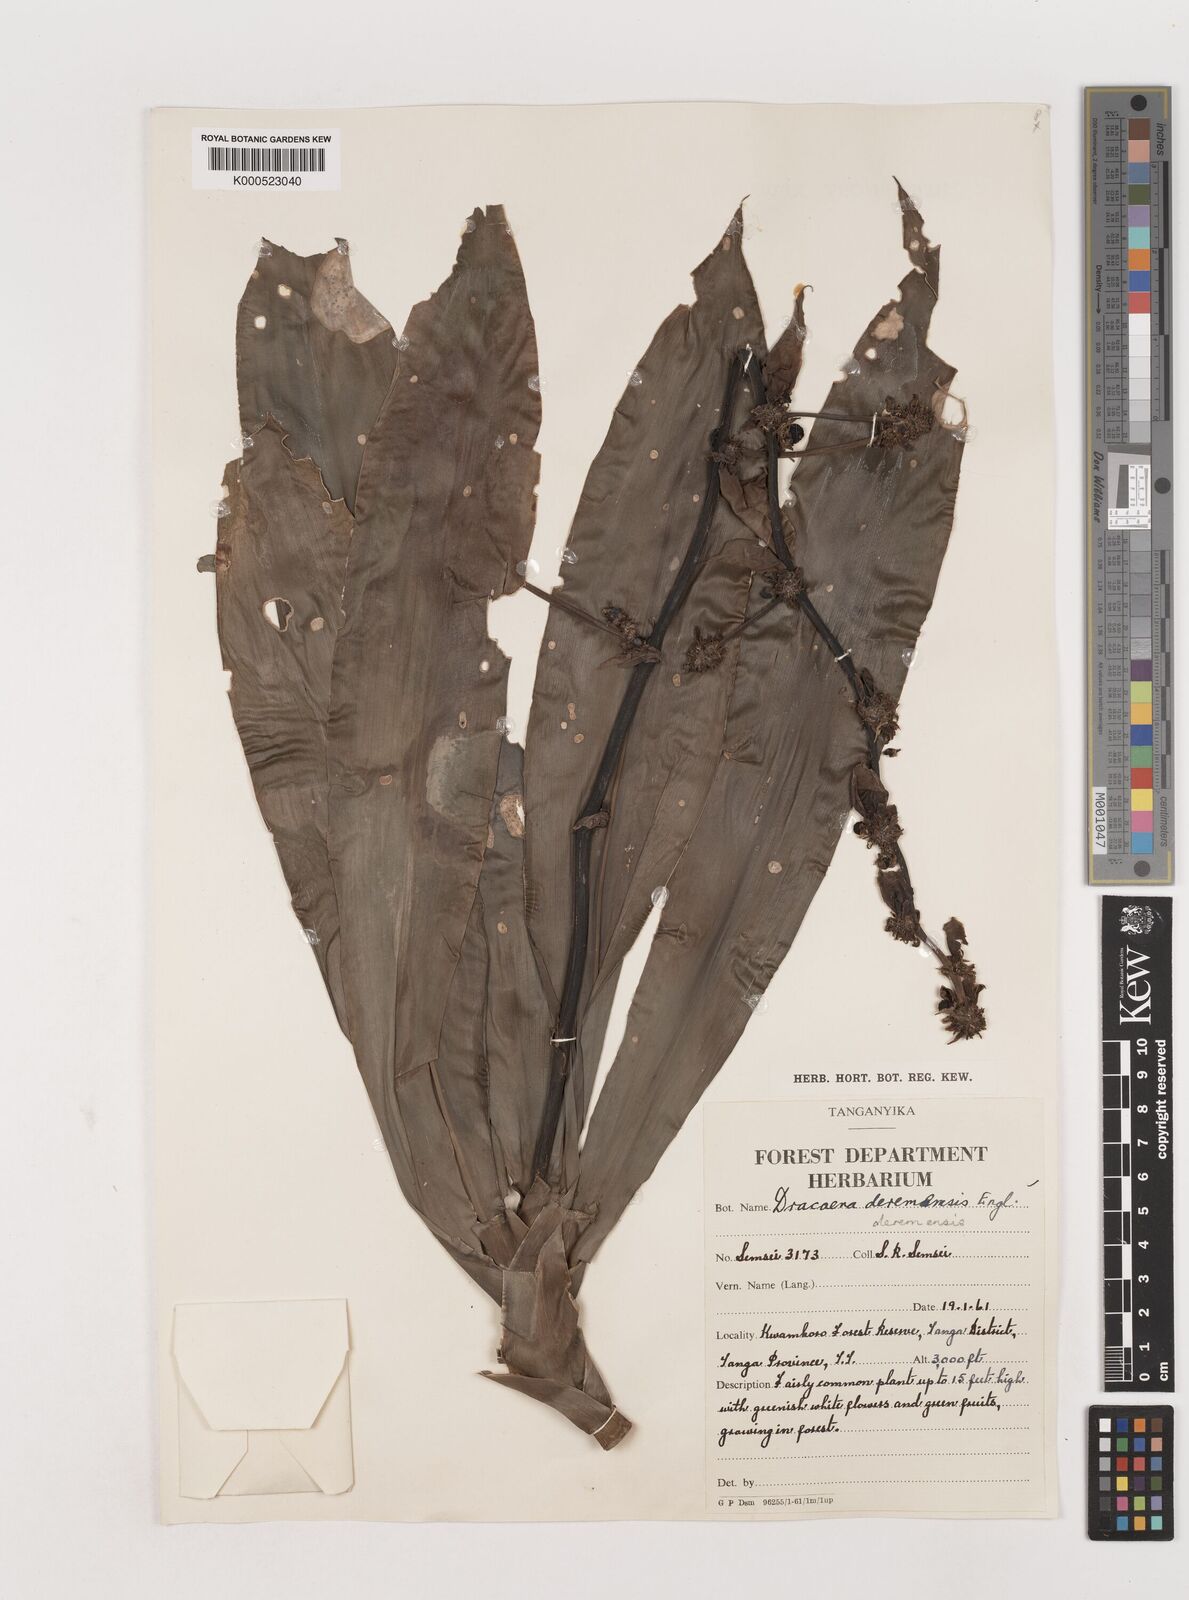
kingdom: Plantae
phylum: Tracheophyta
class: Liliopsida
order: Asparagales
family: Asparagaceae
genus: Dracaena
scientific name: Dracaena fragrans
